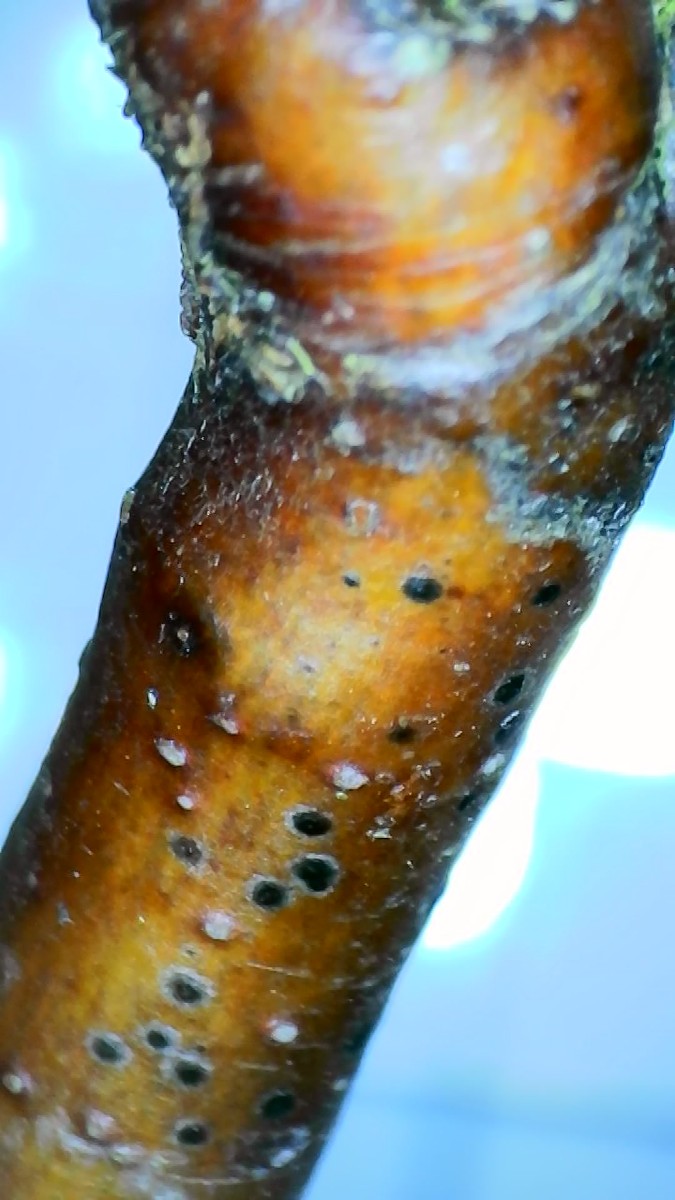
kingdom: Fungi
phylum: Ascomycota
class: Dothideomycetes
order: Dothideales
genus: Mycoglaena
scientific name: Mycoglaena myricae
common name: liden porsprik
